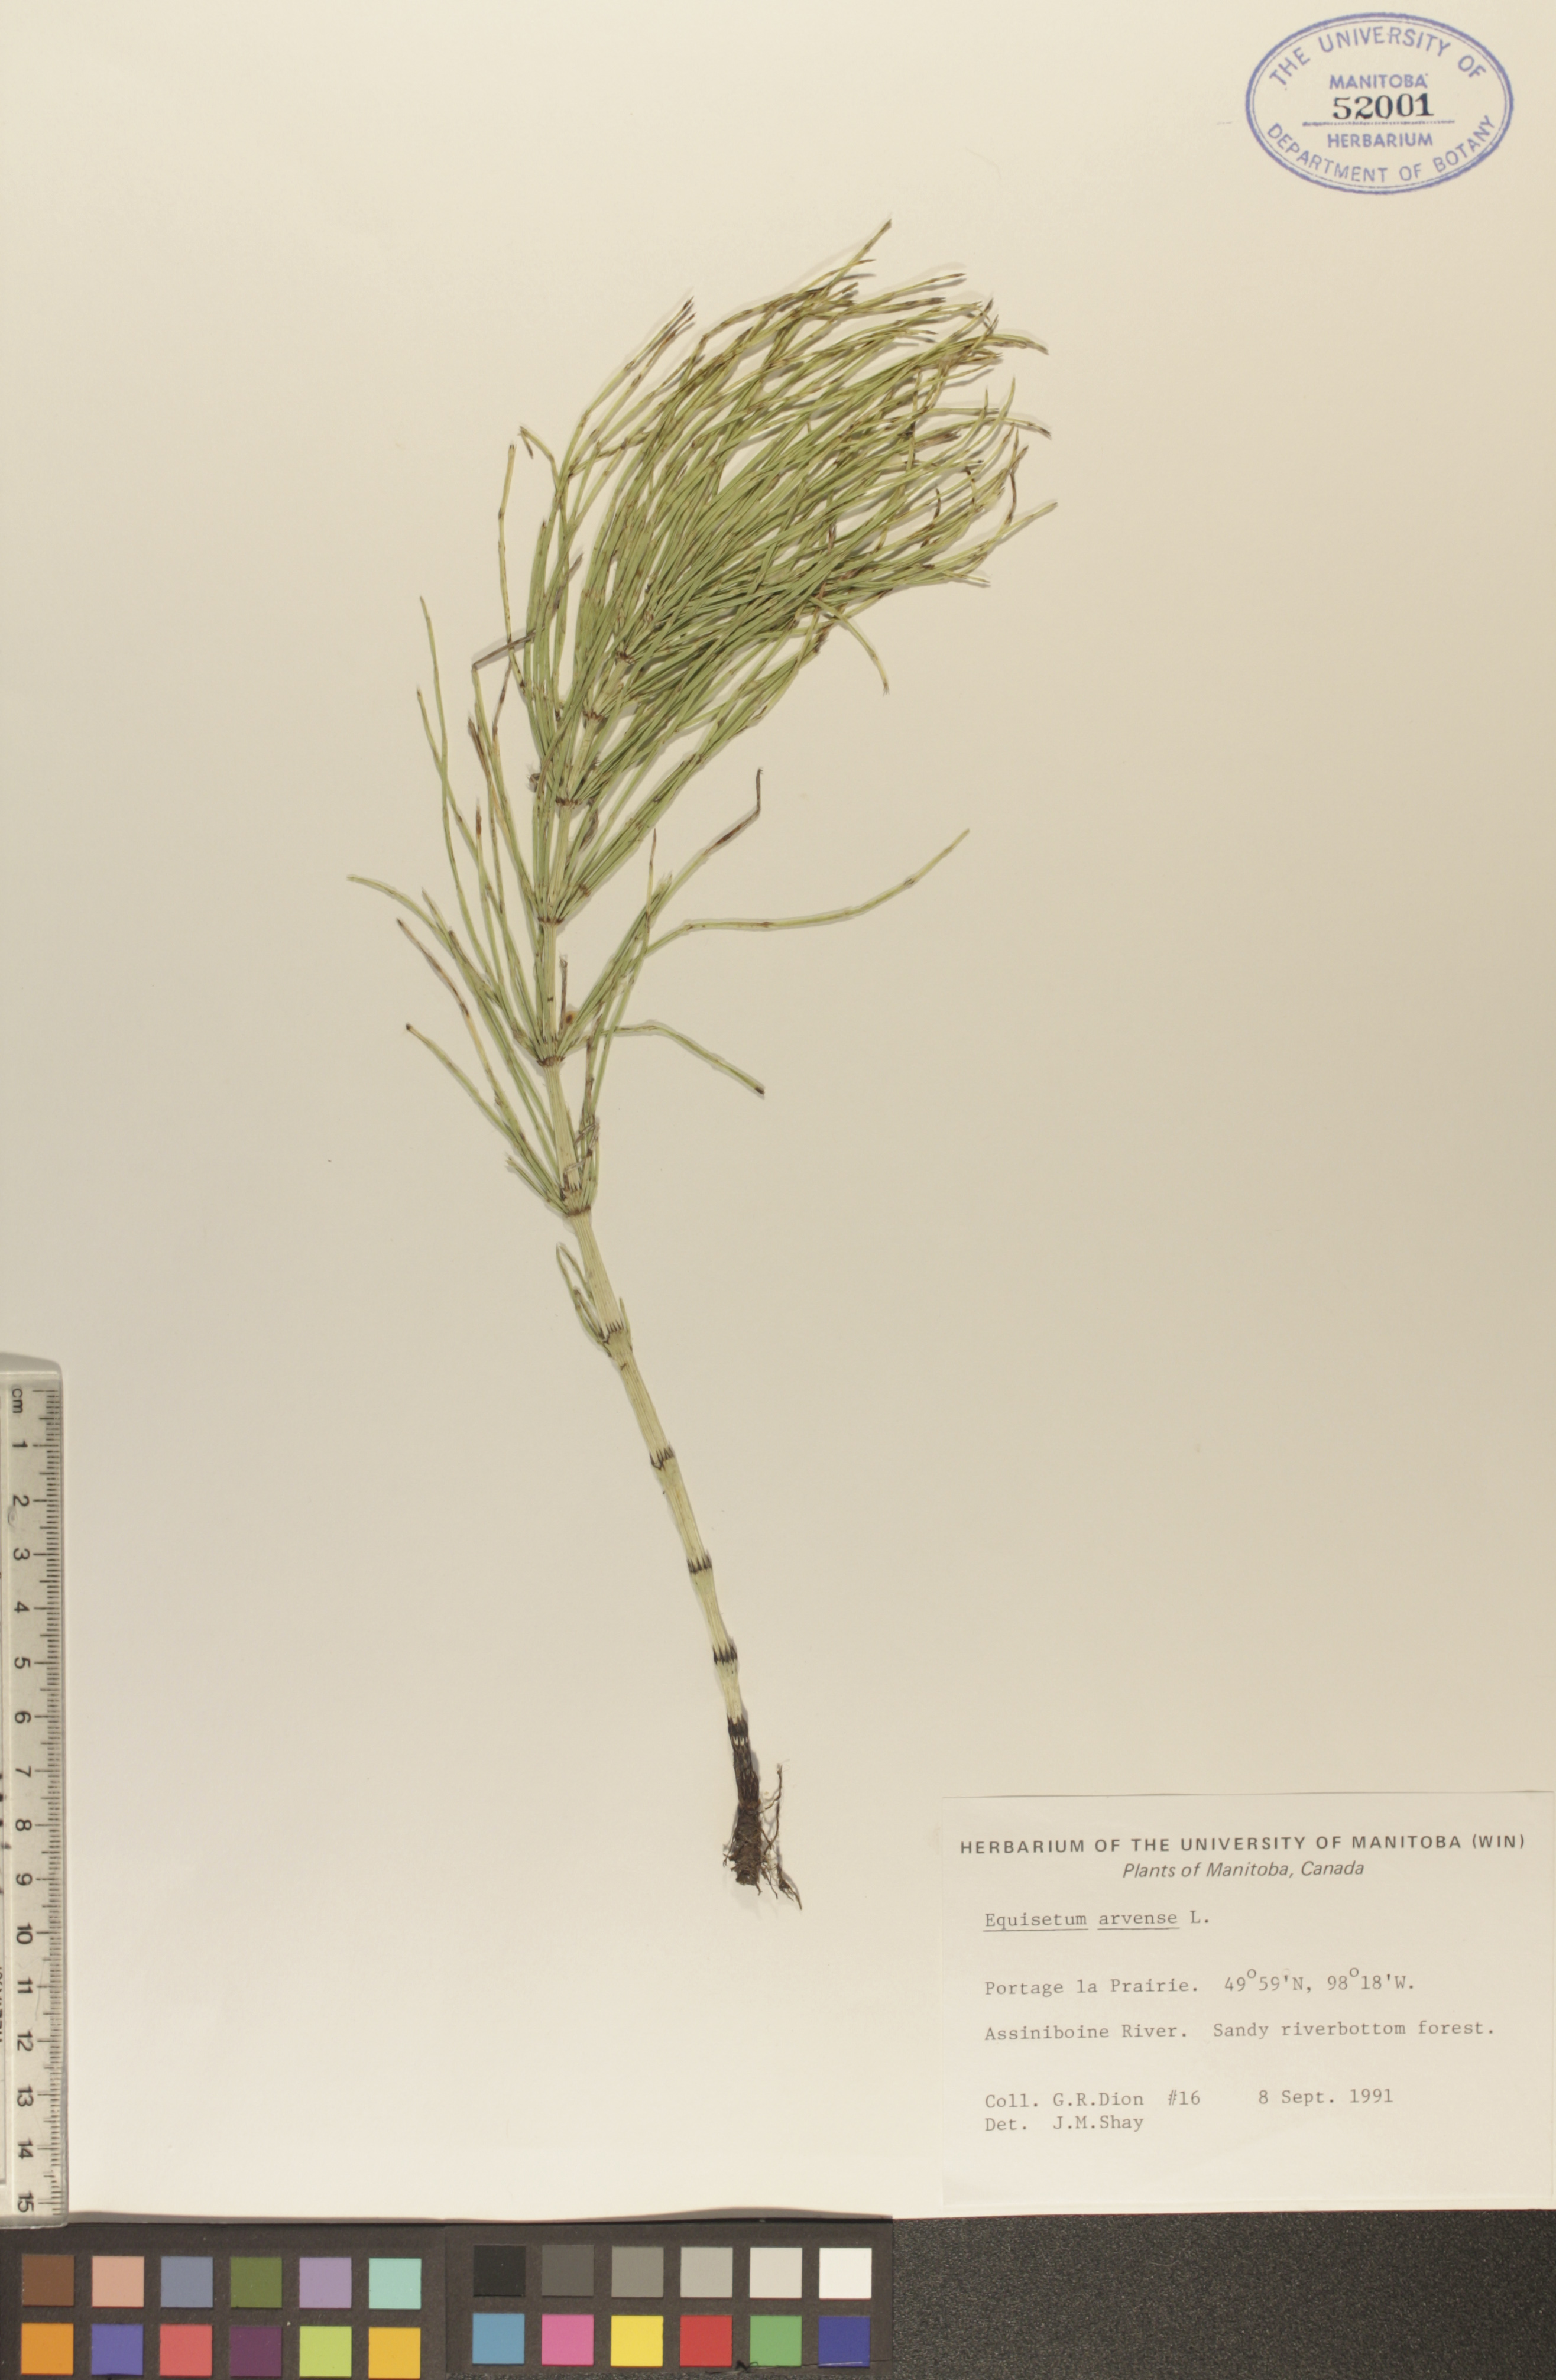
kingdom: Plantae
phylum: Tracheophyta
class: Polypodiopsida
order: Equisetales
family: Equisetaceae
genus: Equisetum
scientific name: Equisetum arvense
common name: Field horsetail
